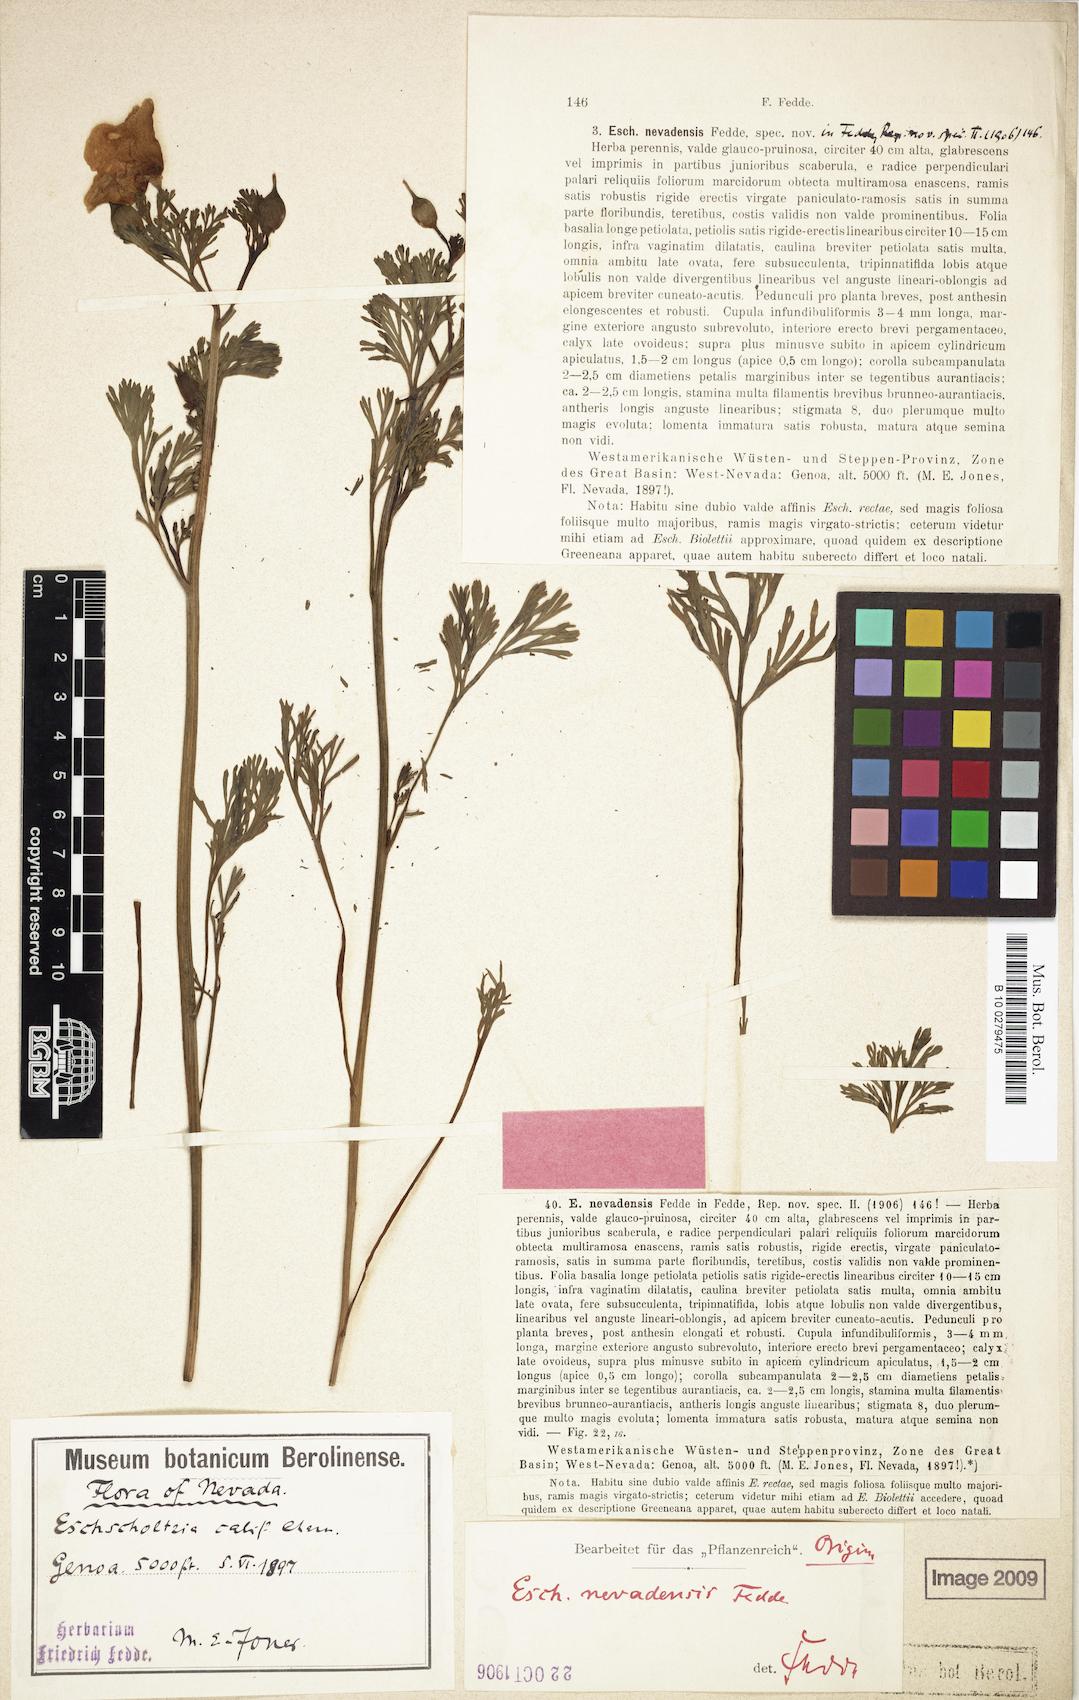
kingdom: Plantae
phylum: Tracheophyta
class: Magnoliopsida
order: Ranunculales
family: Papaveraceae
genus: Eschscholzia
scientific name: Eschscholzia californica
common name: California poppy
